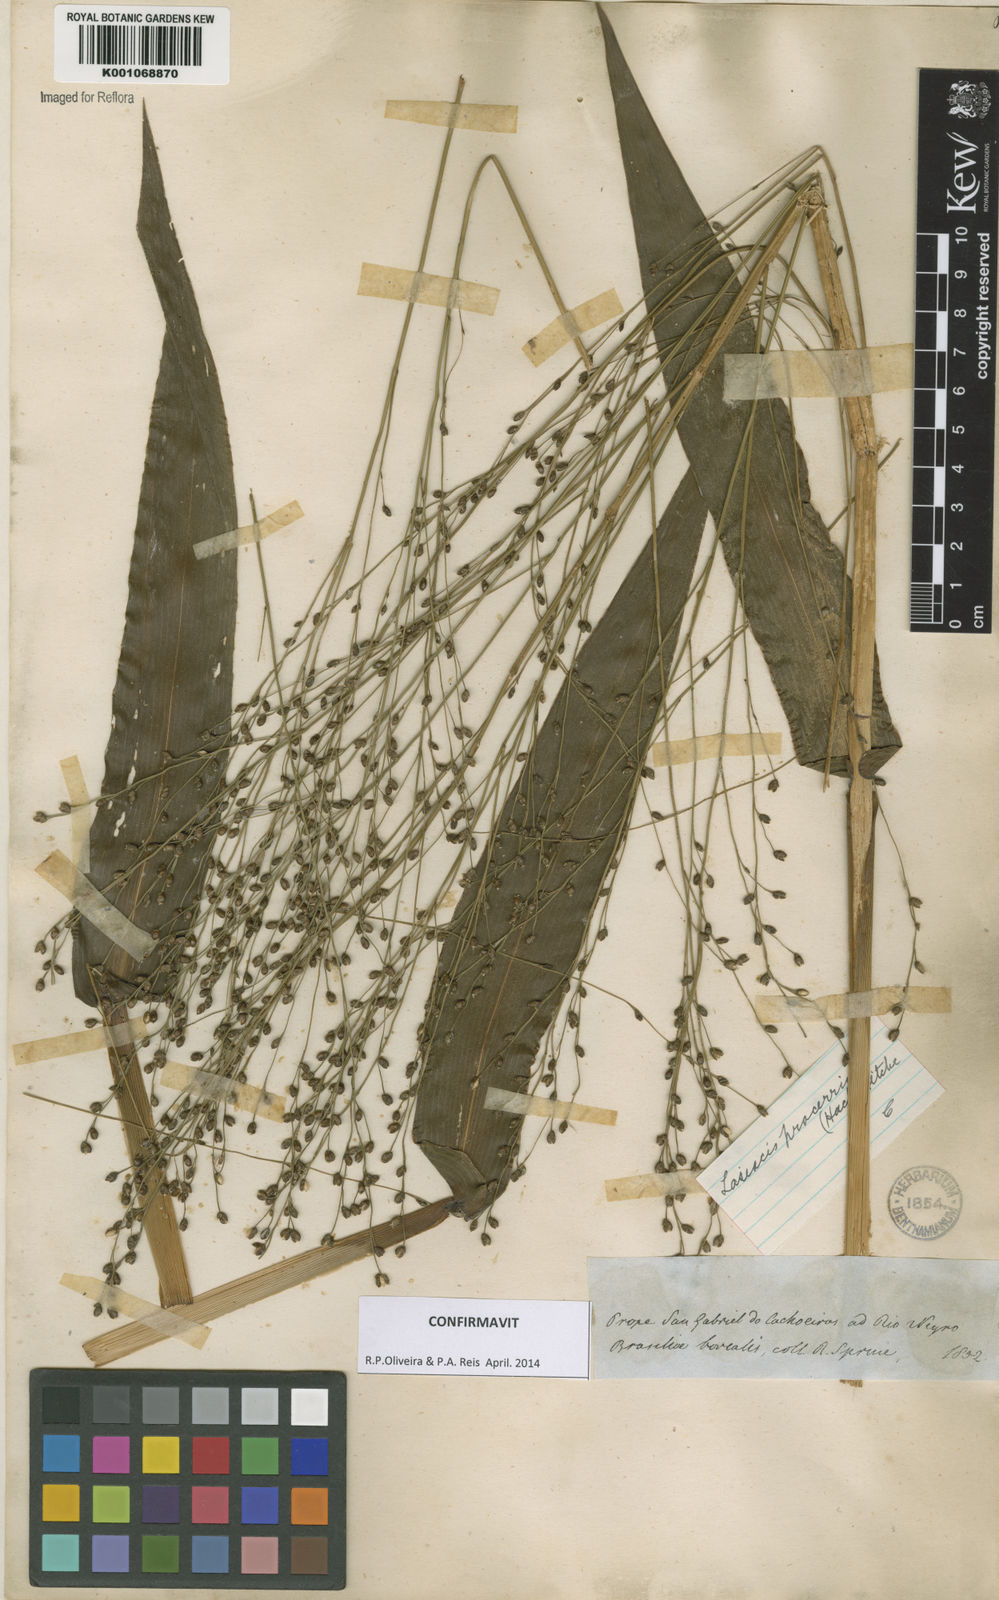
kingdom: Plantae
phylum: Tracheophyta
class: Liliopsida
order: Poales
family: Poaceae
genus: Lasiacis
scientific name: Lasiacis
